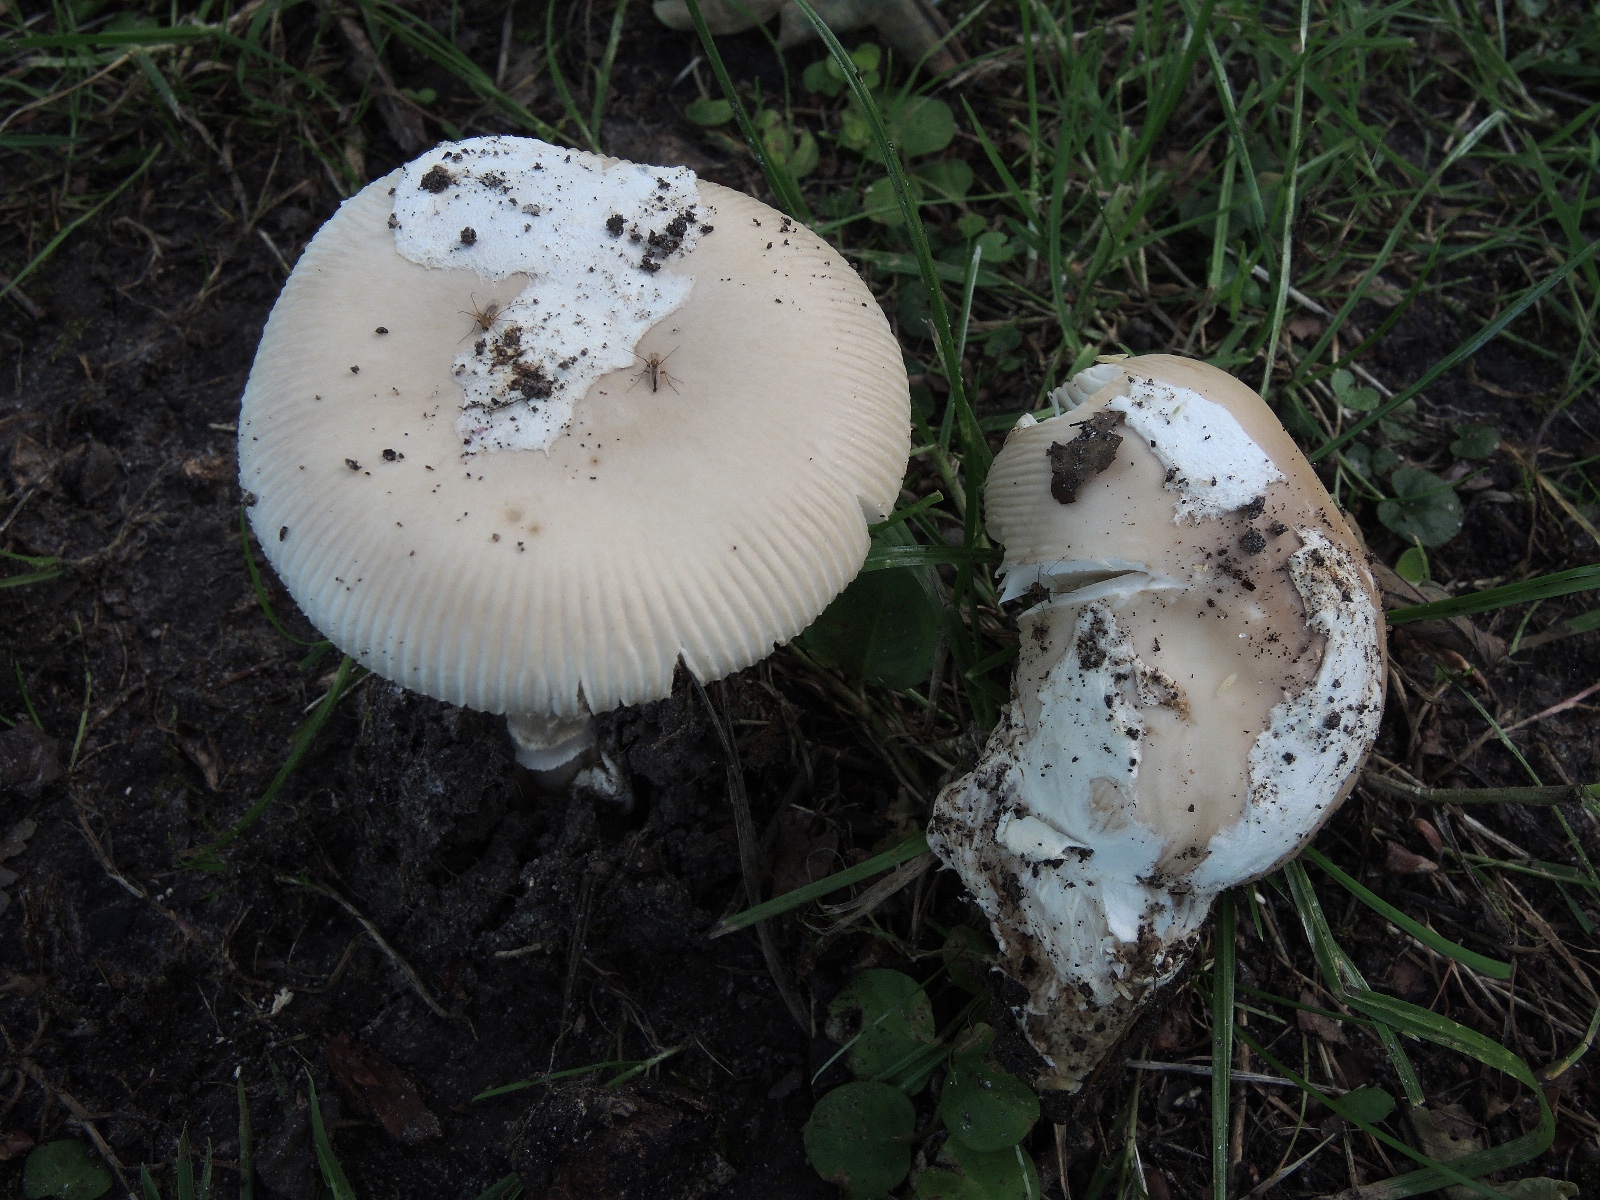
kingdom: Fungi
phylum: Basidiomycota
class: Agaricomycetes
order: Agaricales
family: Amanitaceae
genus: Amanita
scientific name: Amanita lividopallescens
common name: afblegende kam-fluesvamp
